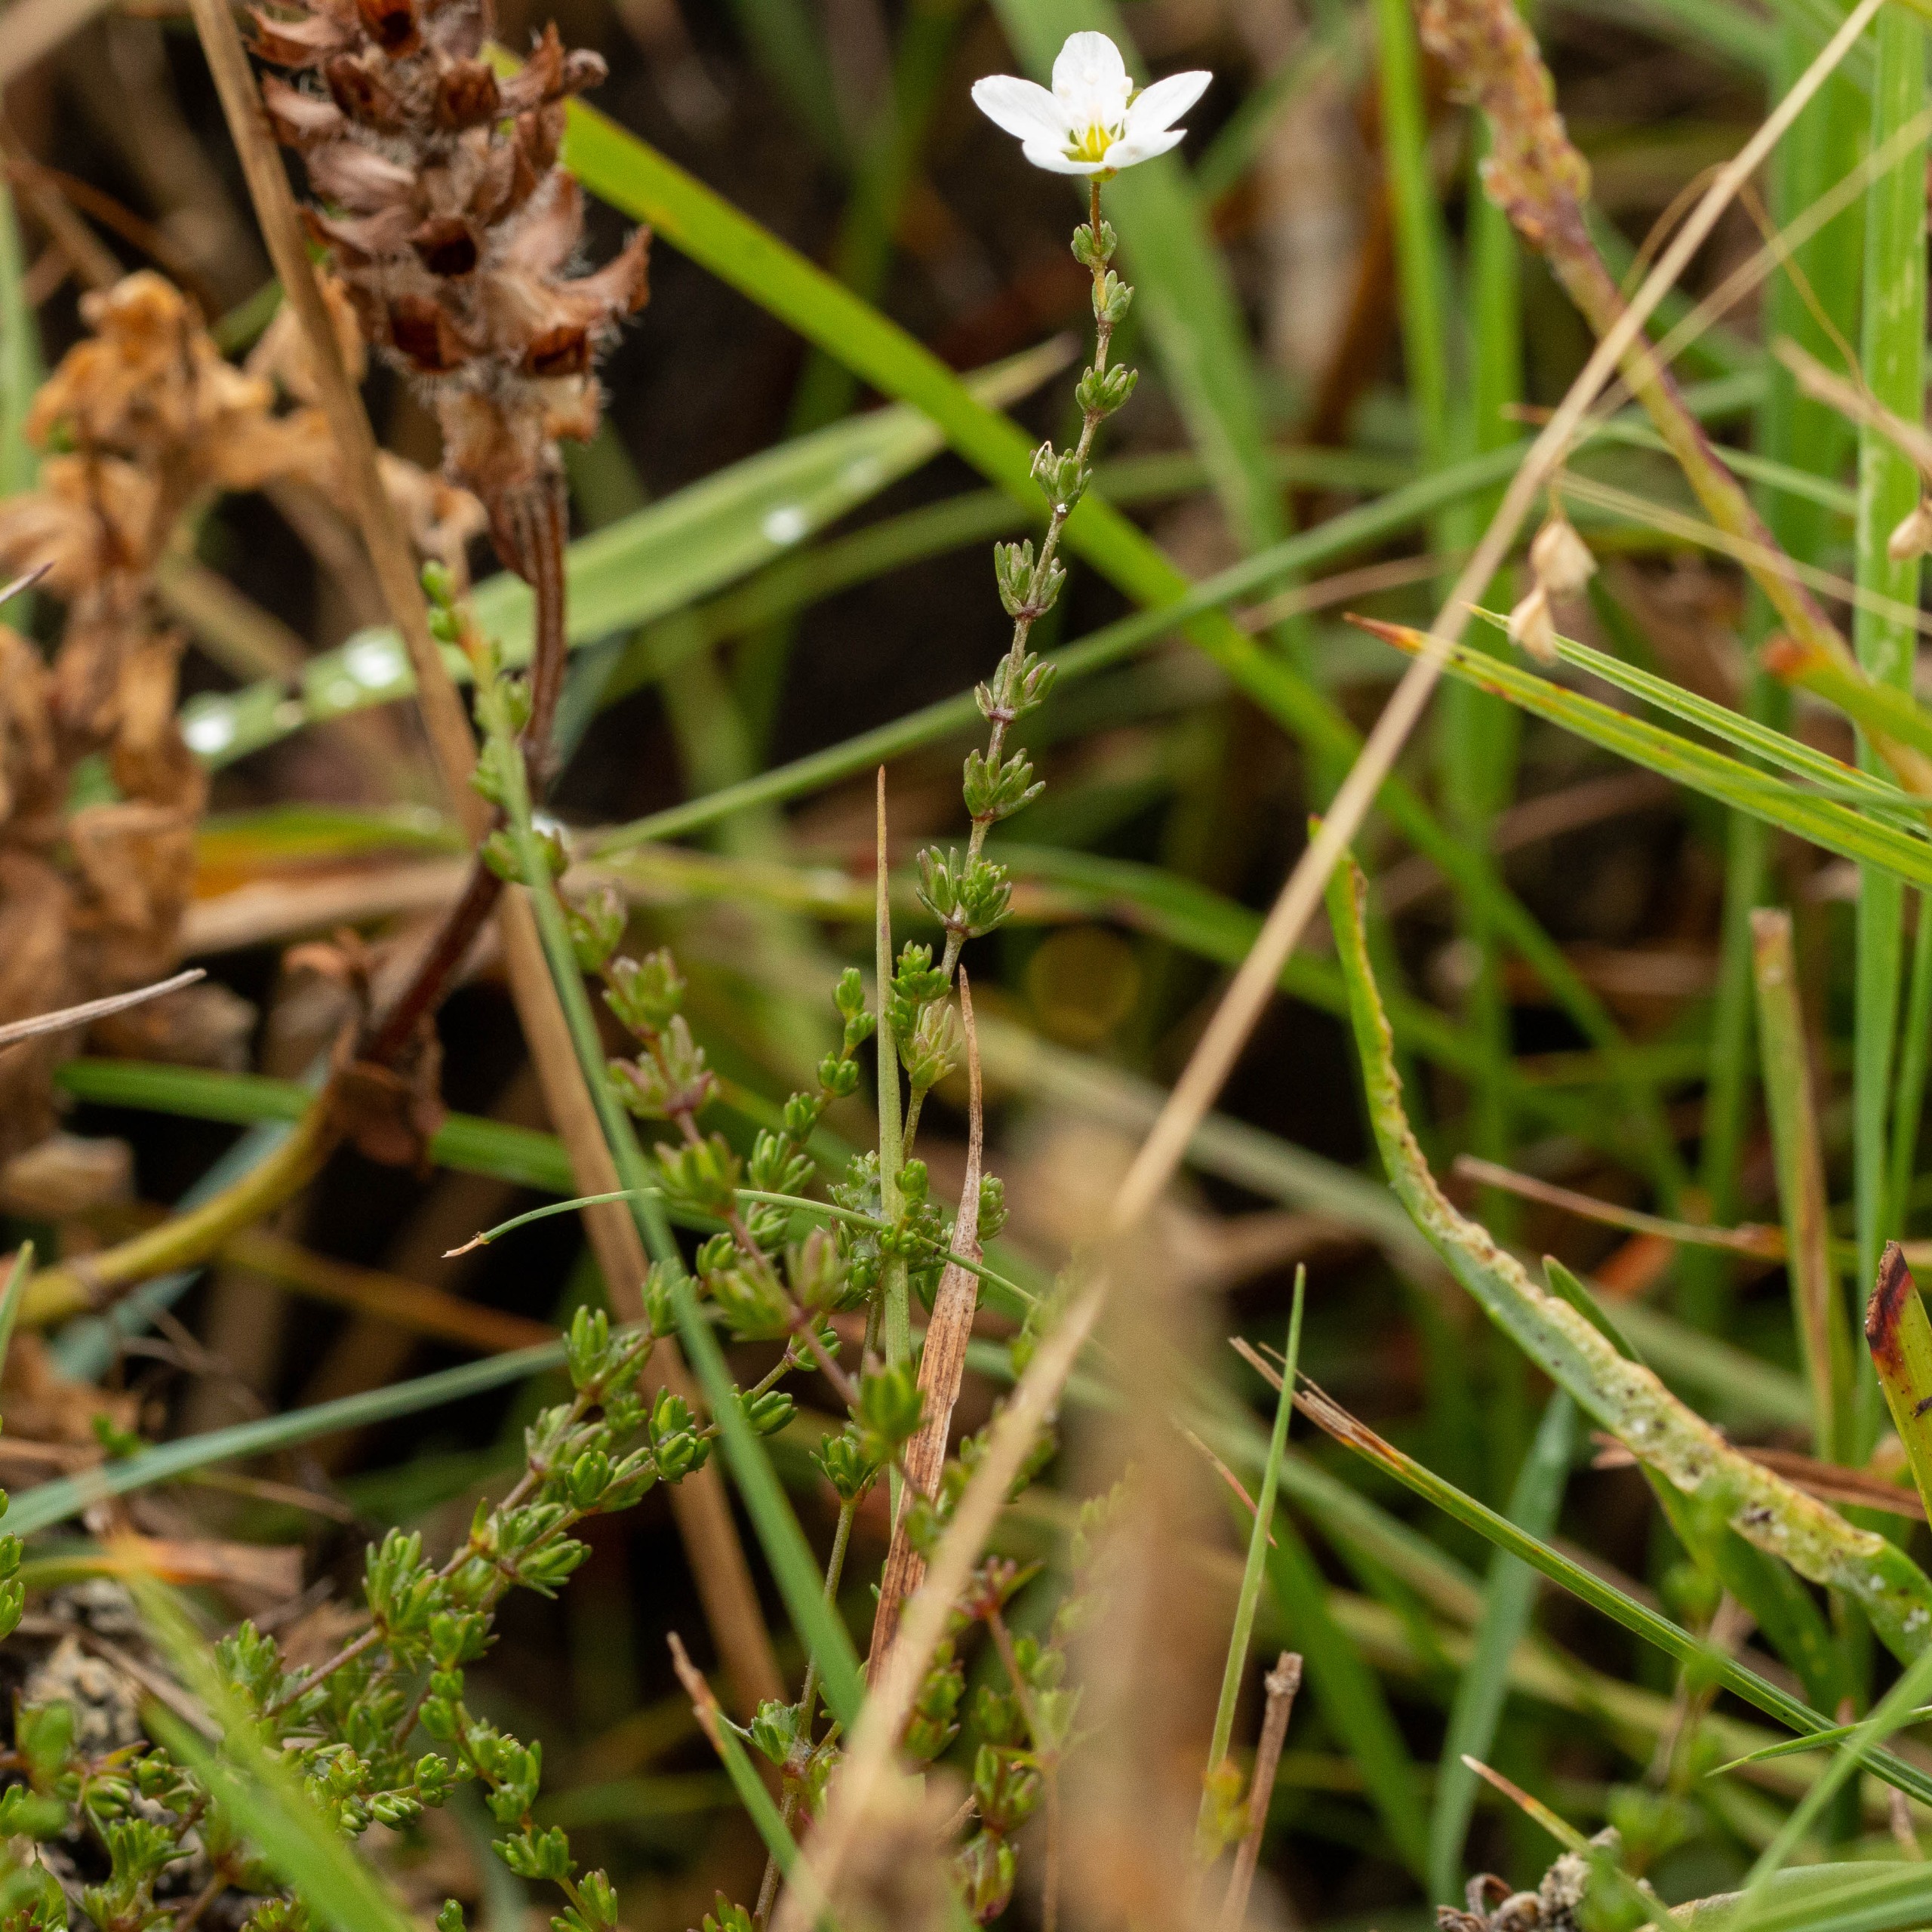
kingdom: Plantae
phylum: Tracheophyta
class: Magnoliopsida
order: Caryophyllales
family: Caryophyllaceae
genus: Sagina
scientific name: Sagina nodosa
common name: Knude-firling
